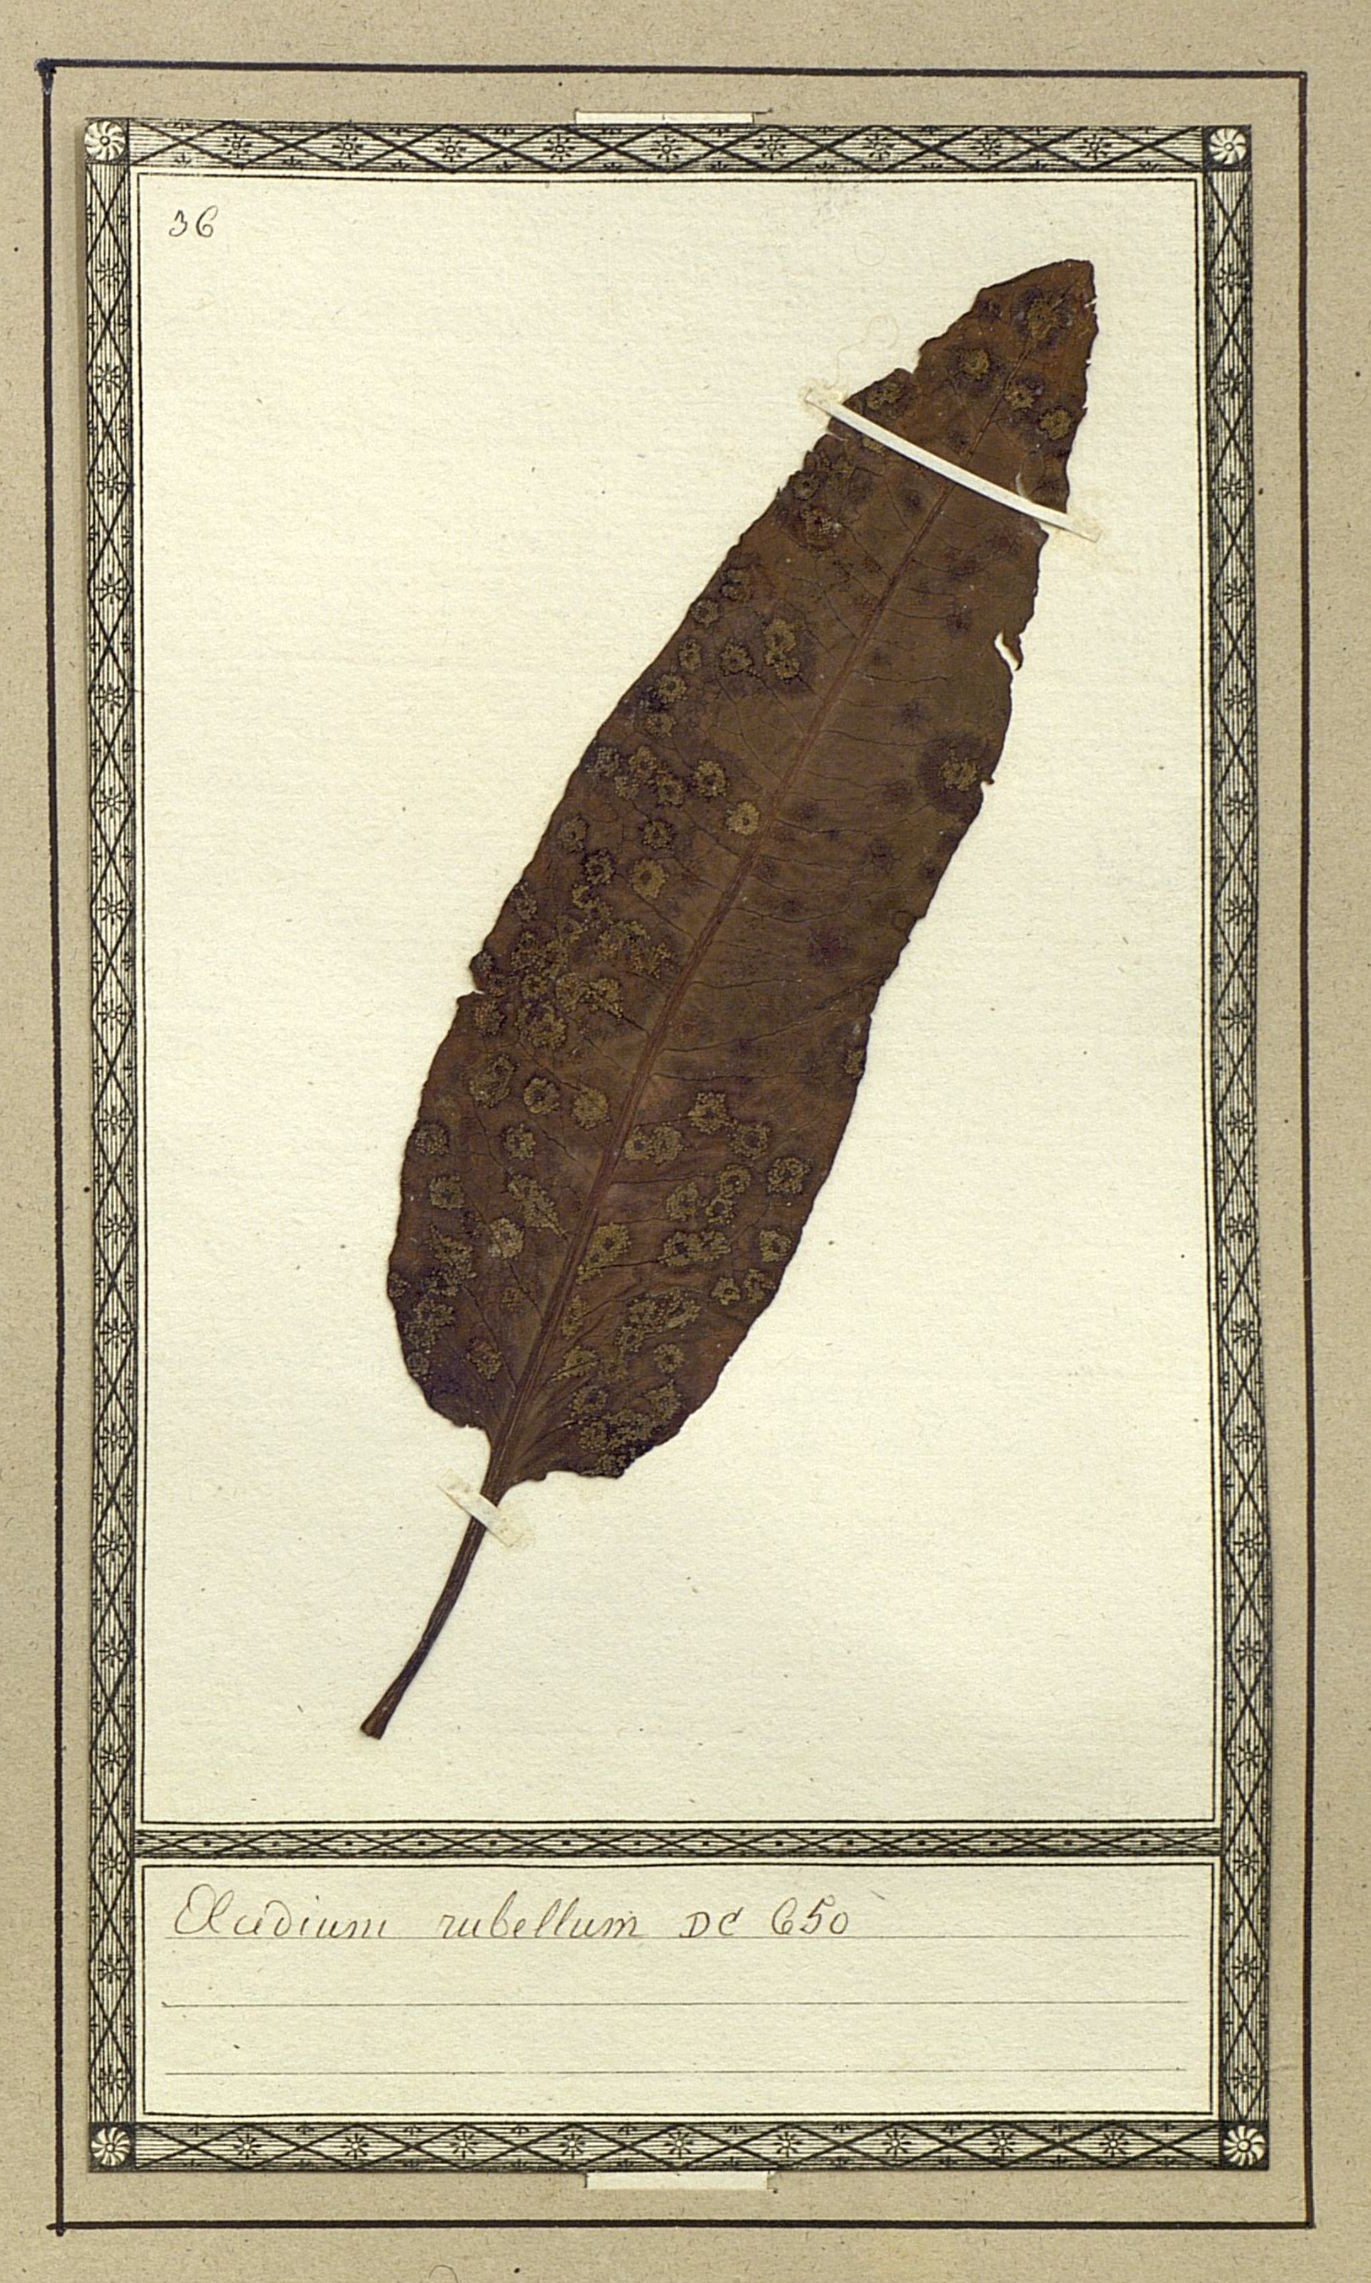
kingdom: Fungi
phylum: Basidiomycota
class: Pucciniomycetes
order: Pucciniales
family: Pucciniaceae
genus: Puccinia
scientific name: Puccinia phragmitis
